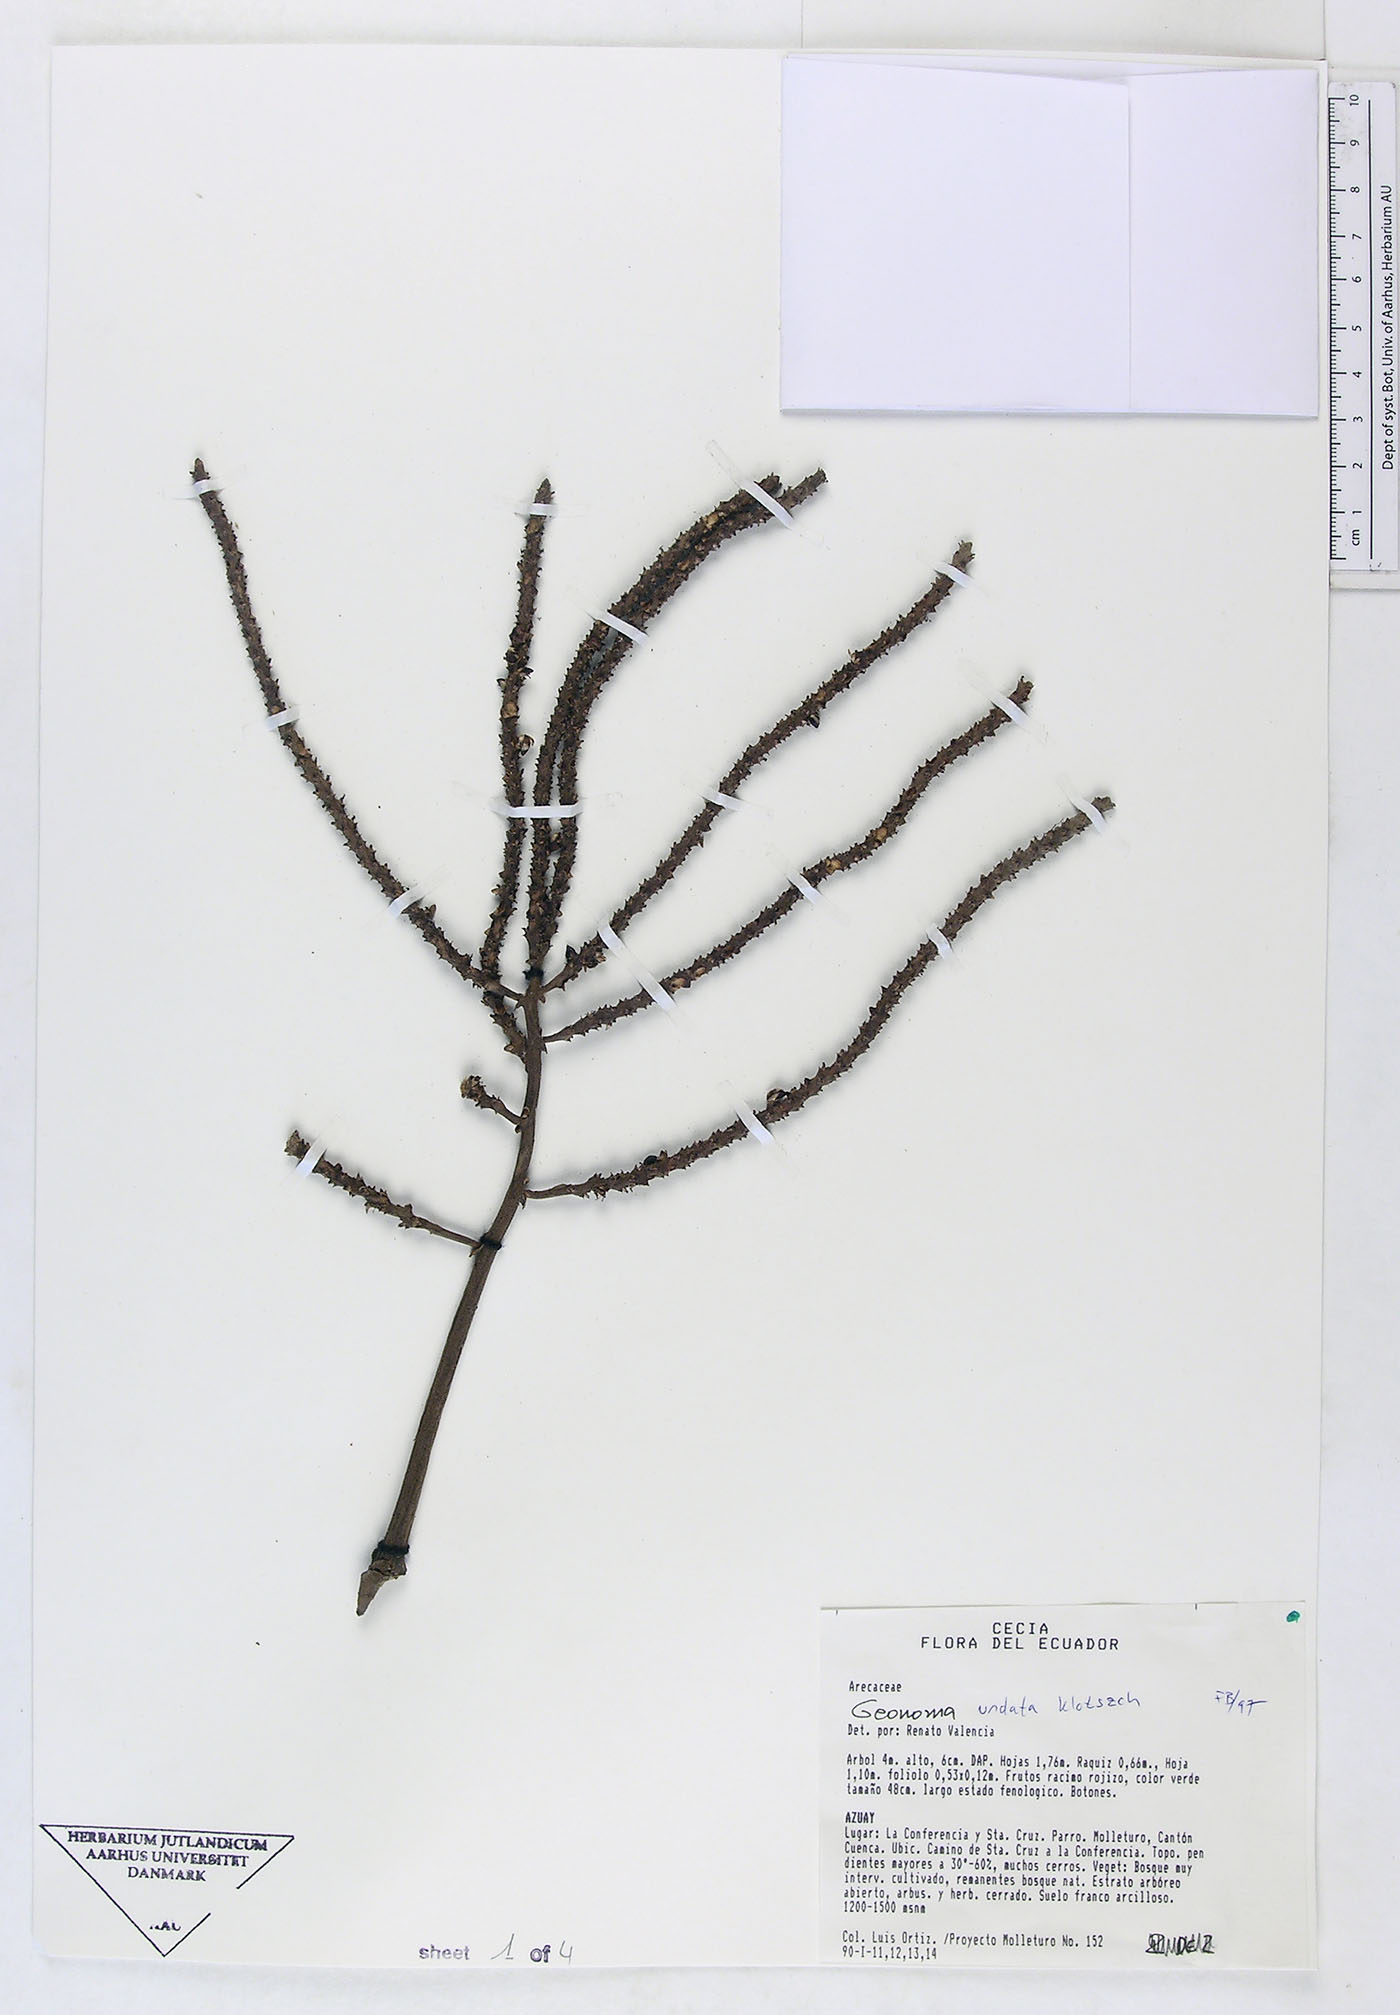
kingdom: Plantae
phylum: Tracheophyta
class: Liliopsida
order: Arecales
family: Arecaceae
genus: Geonoma
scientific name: Geonoma undata
